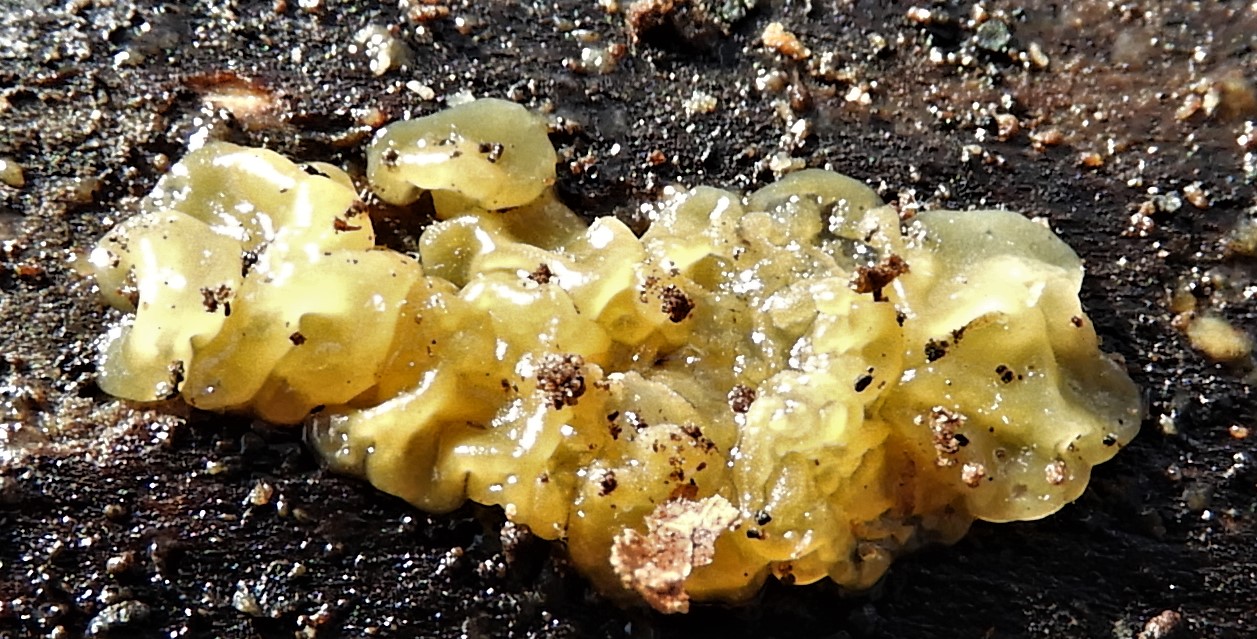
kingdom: Fungi
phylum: Basidiomycota
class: Dacrymycetes
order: Dacrymycetales
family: Dacrymycetaceae
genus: Dacrymyces
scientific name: Dacrymyces lacrymalis
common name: rynket tåresvamp
